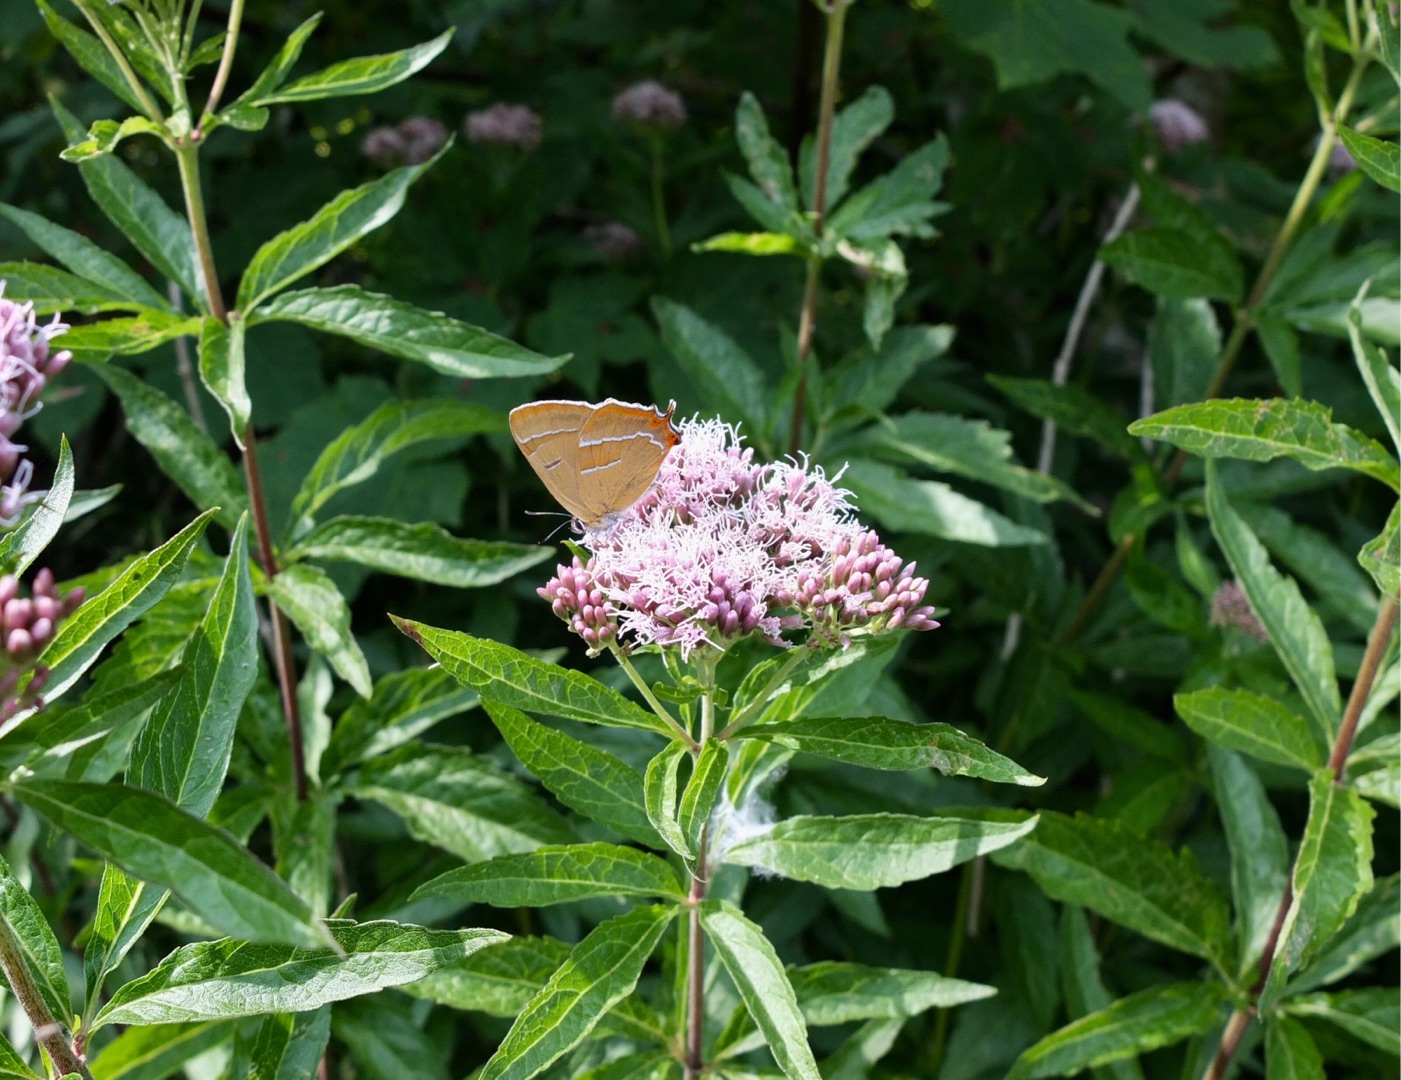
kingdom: Animalia
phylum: Arthropoda
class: Insecta
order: Lepidoptera
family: Lycaenidae
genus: Thecla
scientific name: Thecla betulae
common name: Guldhale
